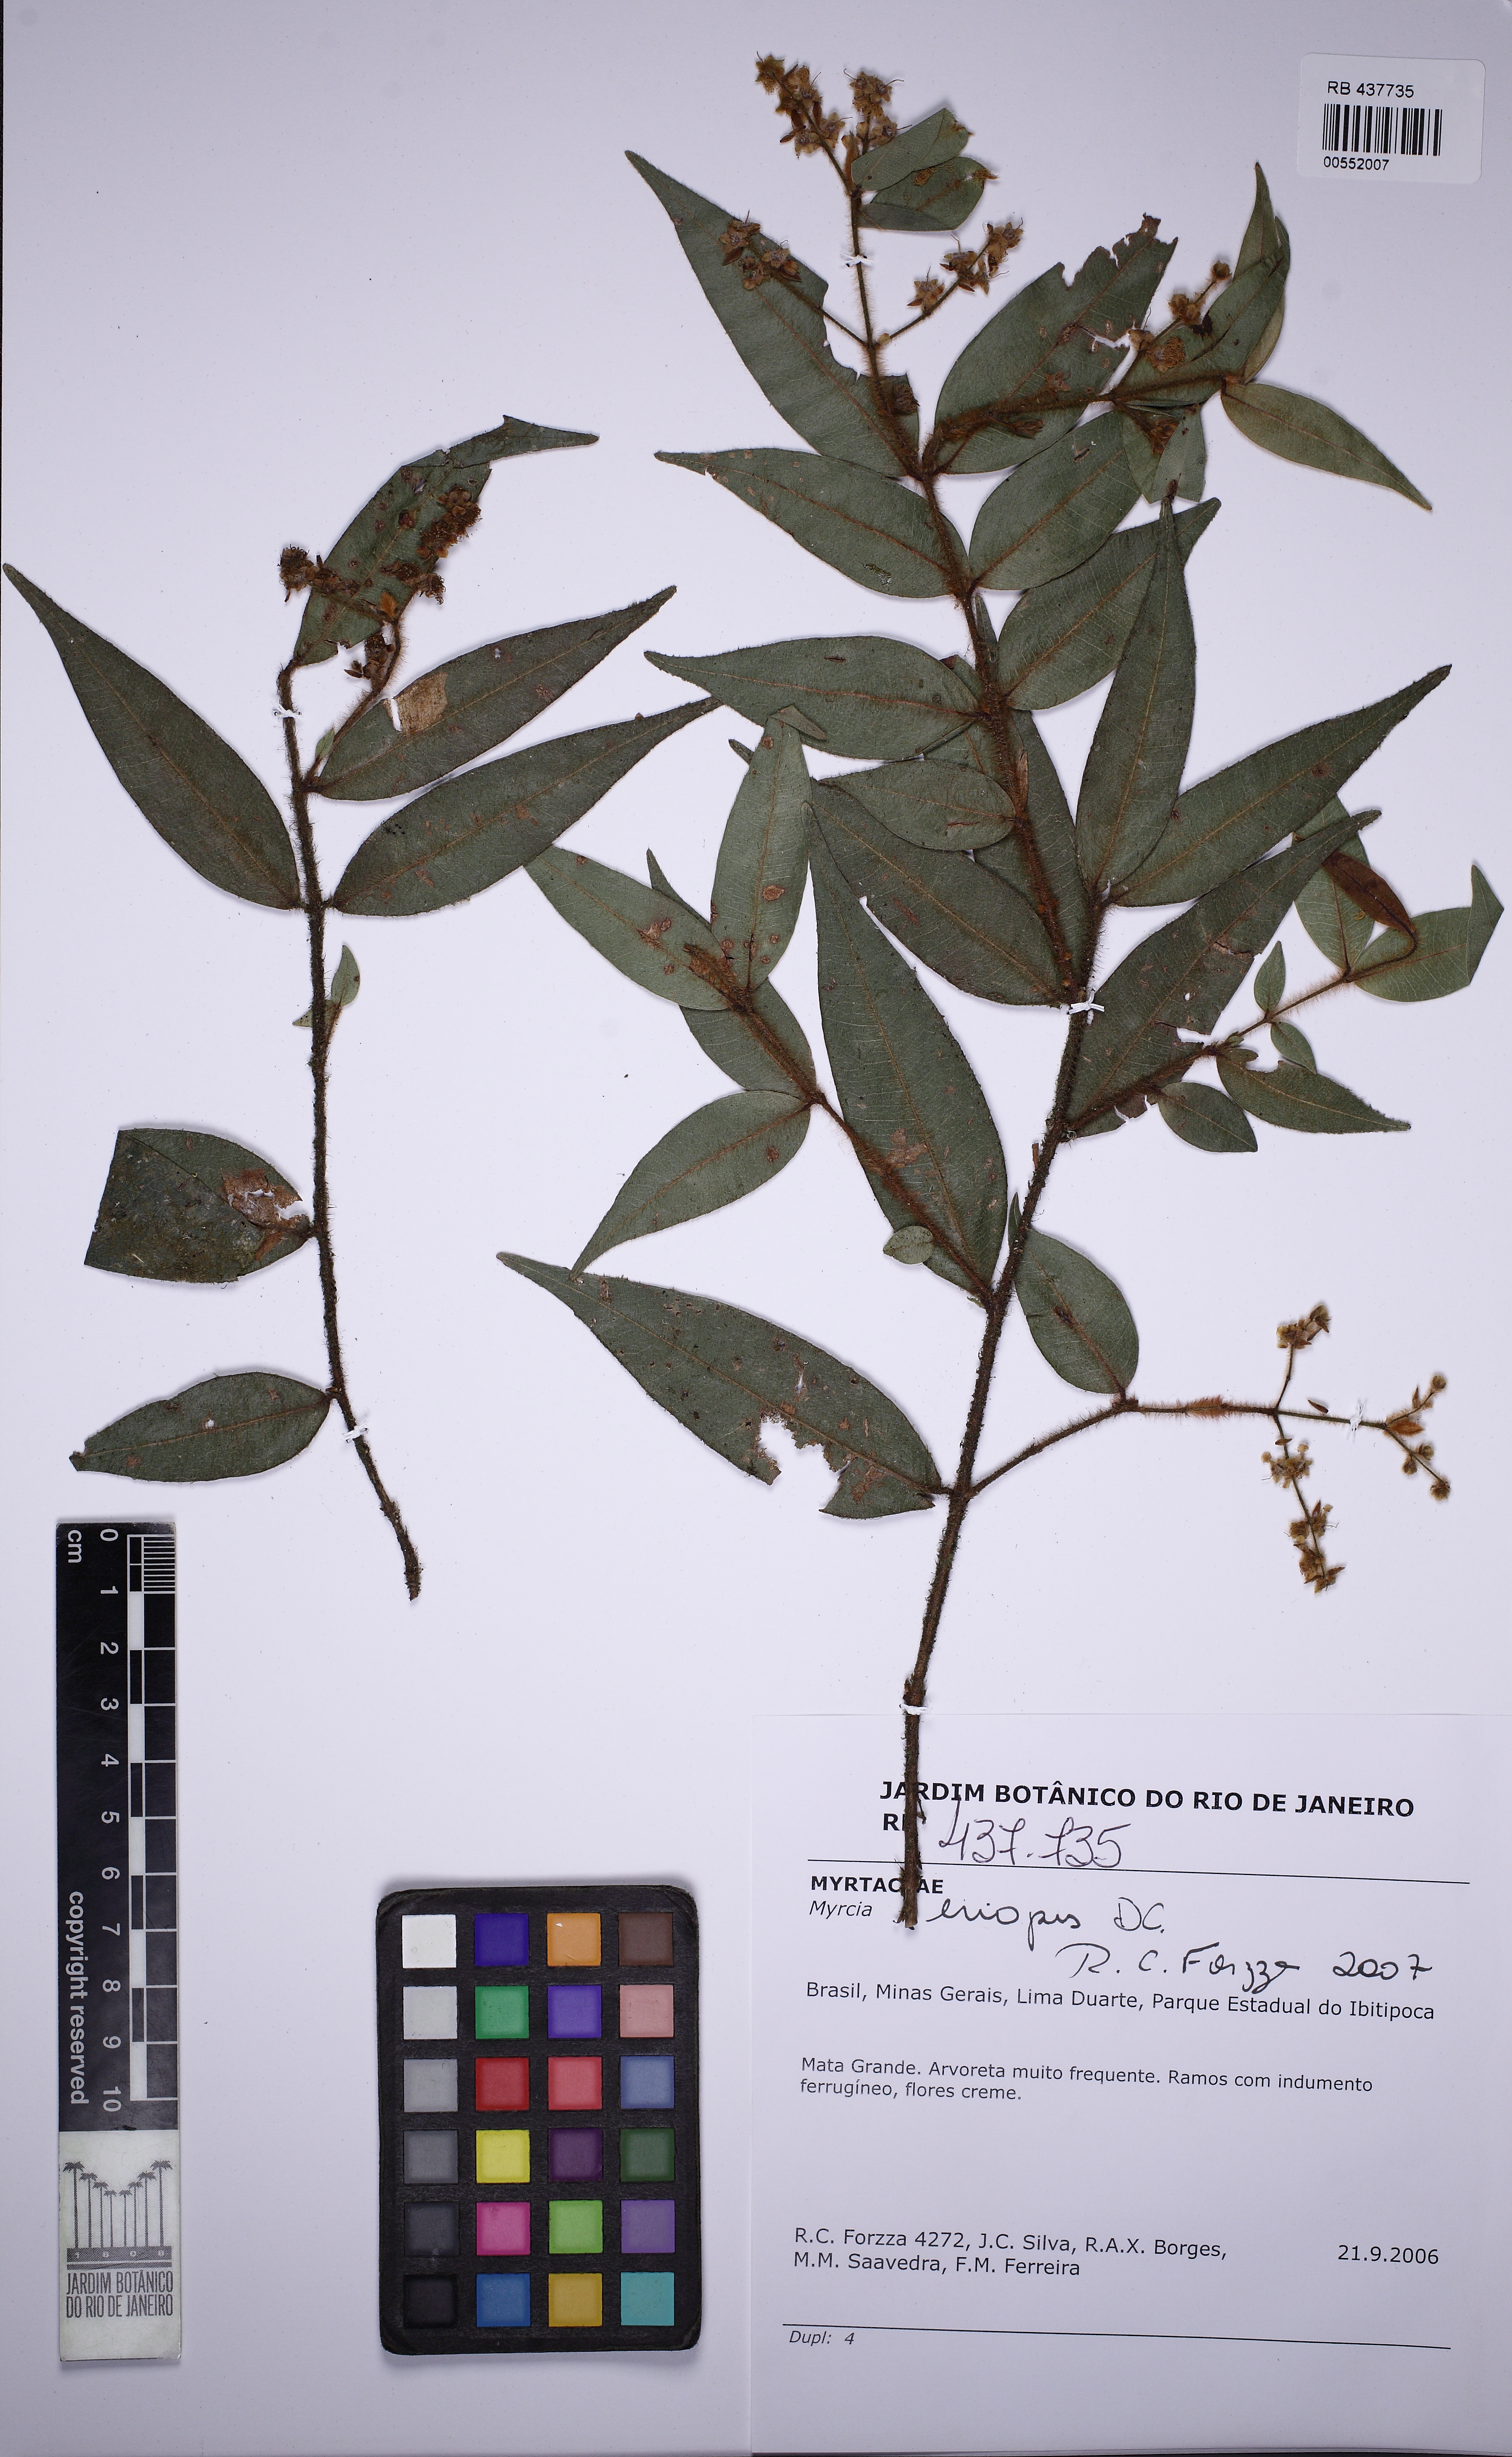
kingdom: Plantae
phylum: Tracheophyta
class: Magnoliopsida
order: Myrtales
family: Myrtaceae
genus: Myrcia
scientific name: Myrcia eriopus
